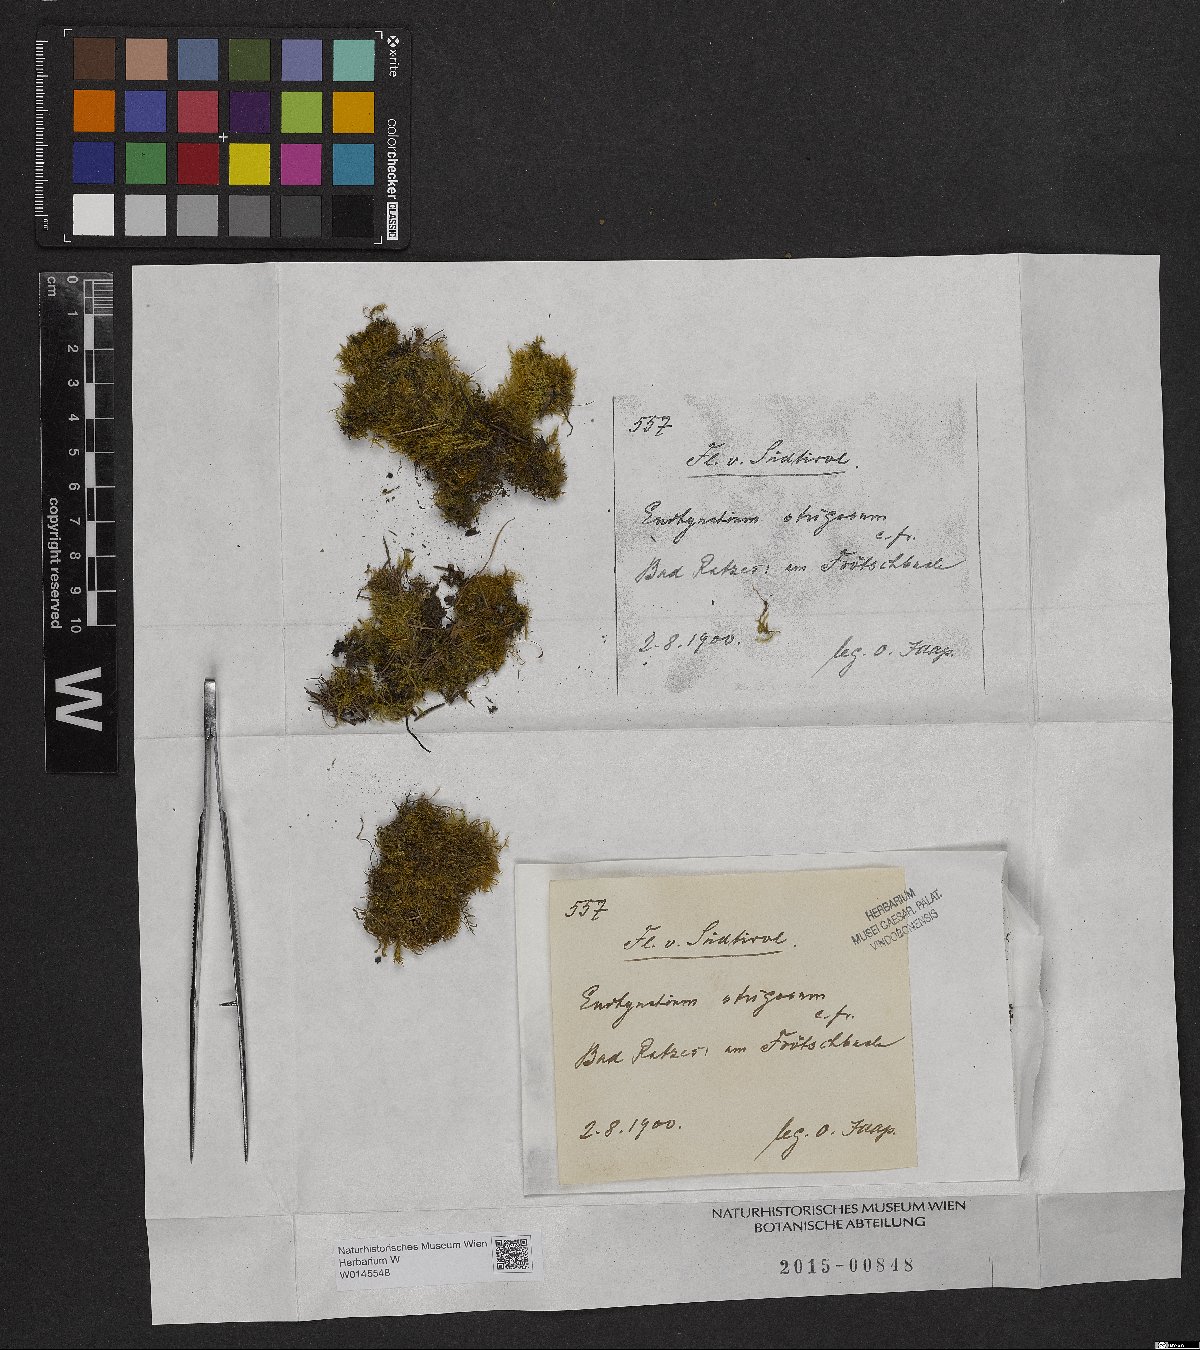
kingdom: Plantae
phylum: Bryophyta
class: Bryopsida
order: Hypnales
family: Brachytheciaceae
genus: Eurhynchiastrum
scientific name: Eurhynchiastrum pulchellum
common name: Elegant beaked moss
